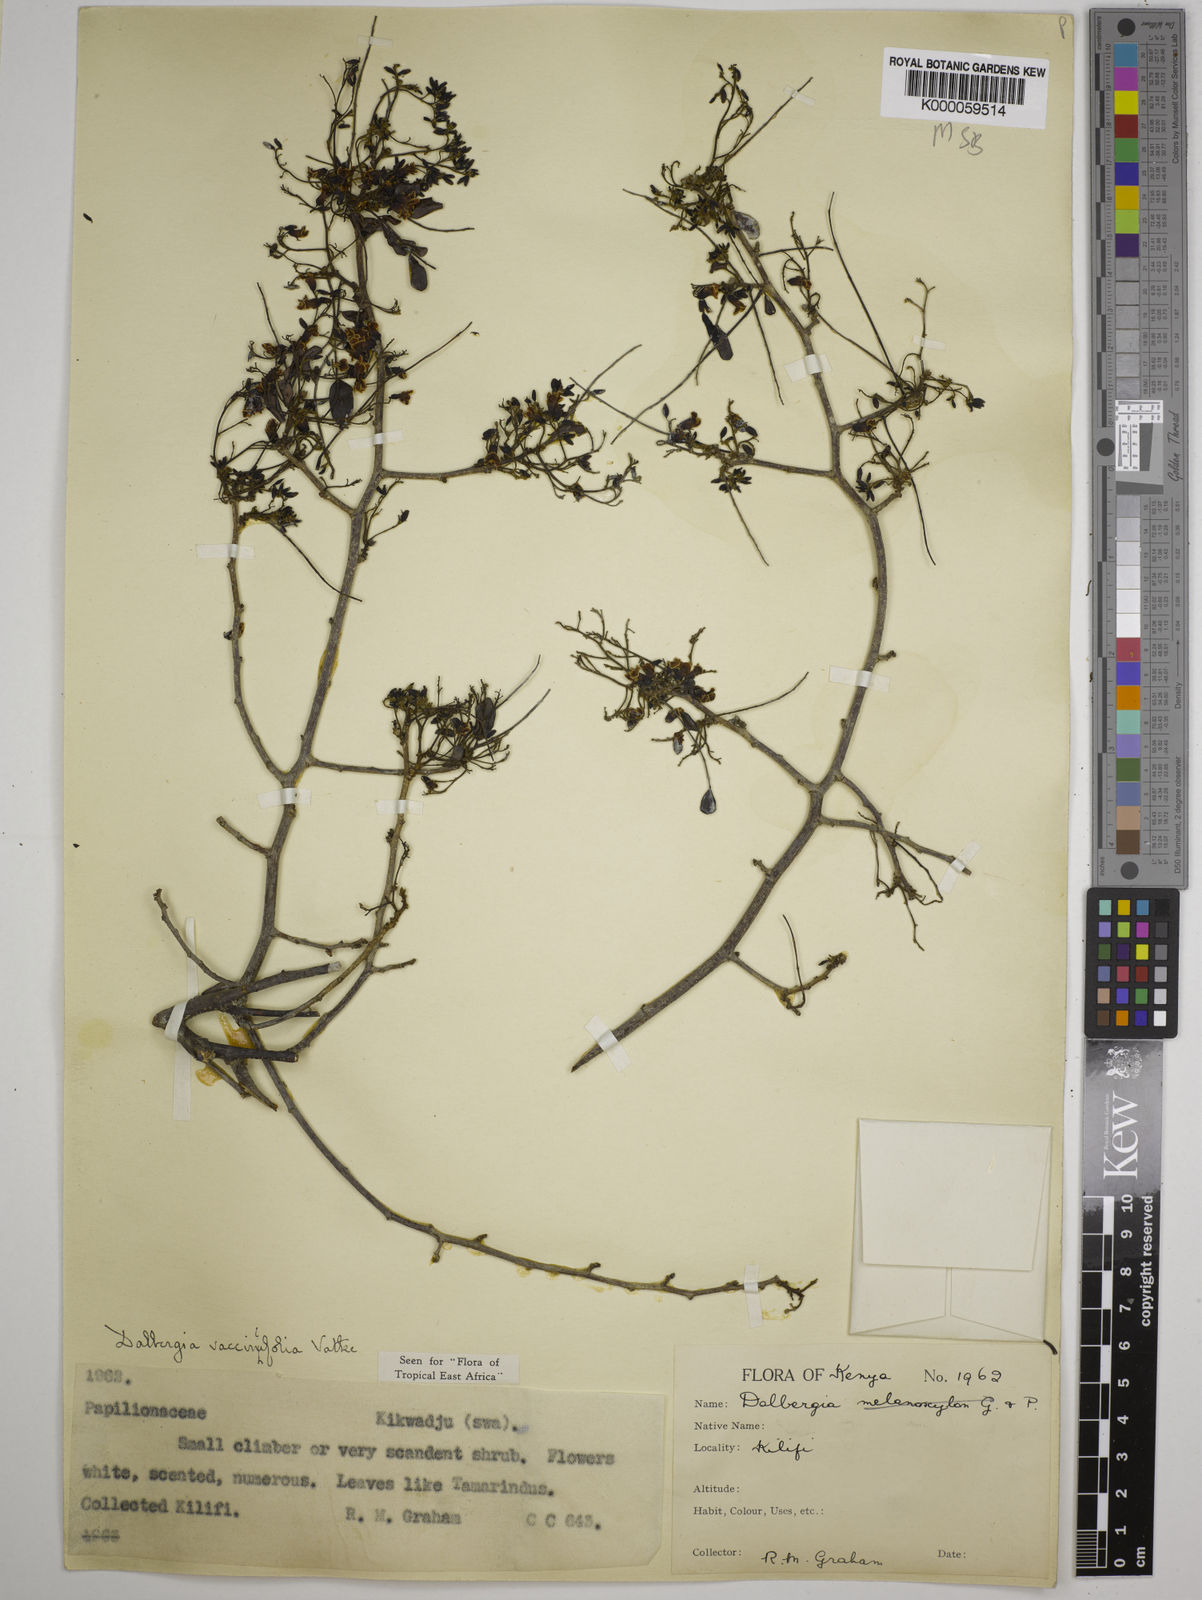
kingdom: Plantae
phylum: Tracheophyta
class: Magnoliopsida
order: Fabales
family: Fabaceae
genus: Dalbergia
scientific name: Dalbergia vacciniifolia
